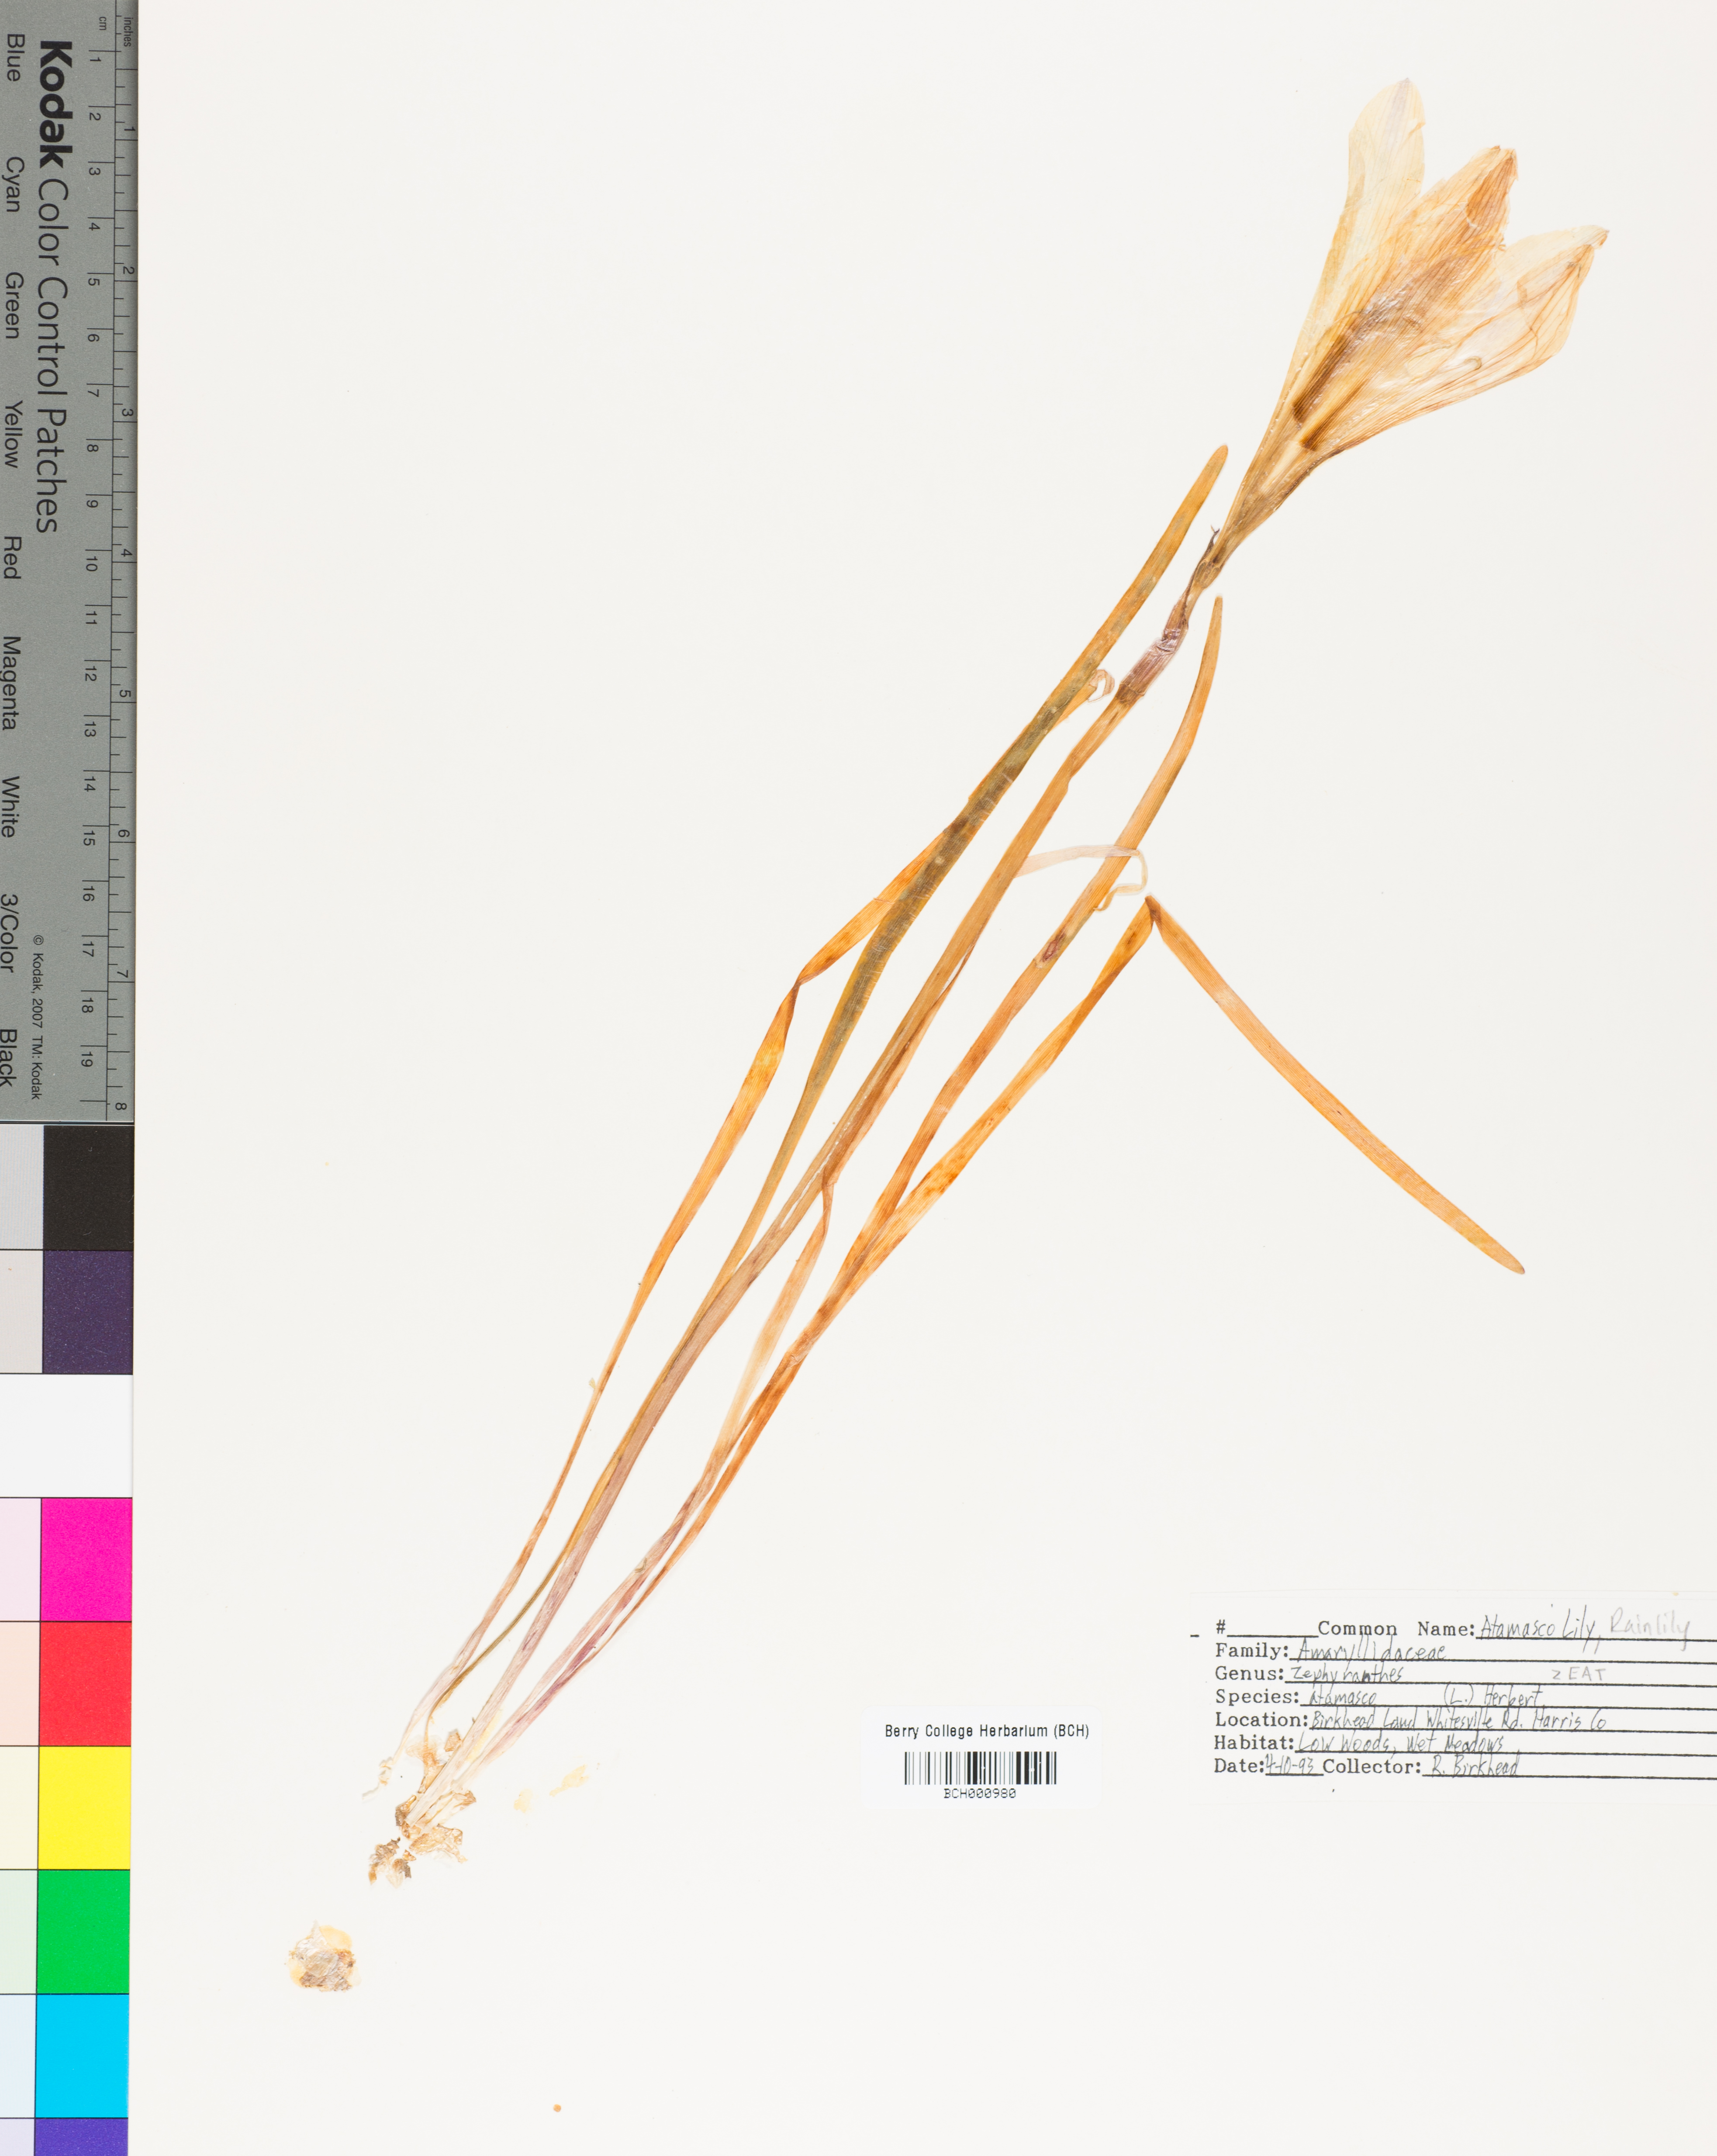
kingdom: Plantae
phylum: Tracheophyta
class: Liliopsida
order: Asparagales
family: Amaryllidaceae
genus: Zephyranthes
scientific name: Zephyranthes atamasca
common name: Atamasco-lily
